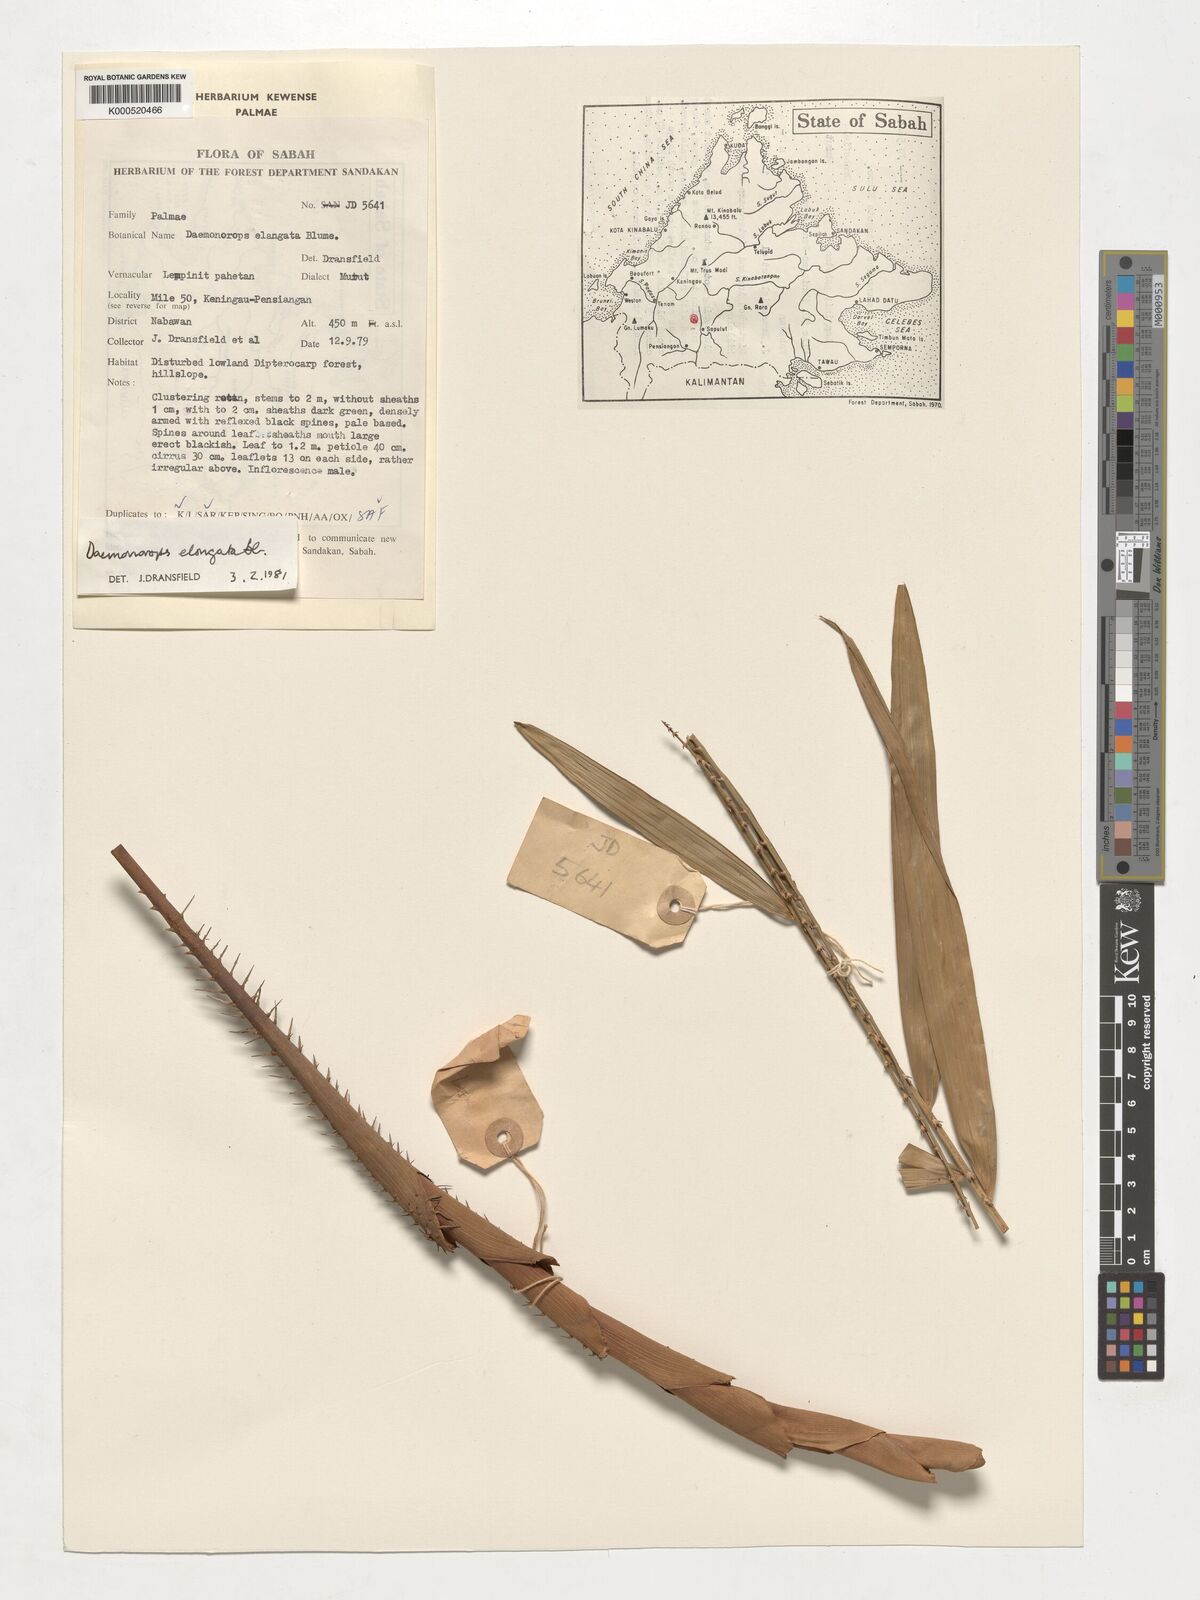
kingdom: Plantae
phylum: Tracheophyta
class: Liliopsida
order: Arecales
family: Arecaceae
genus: Calamus
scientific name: Calamus oblongus
